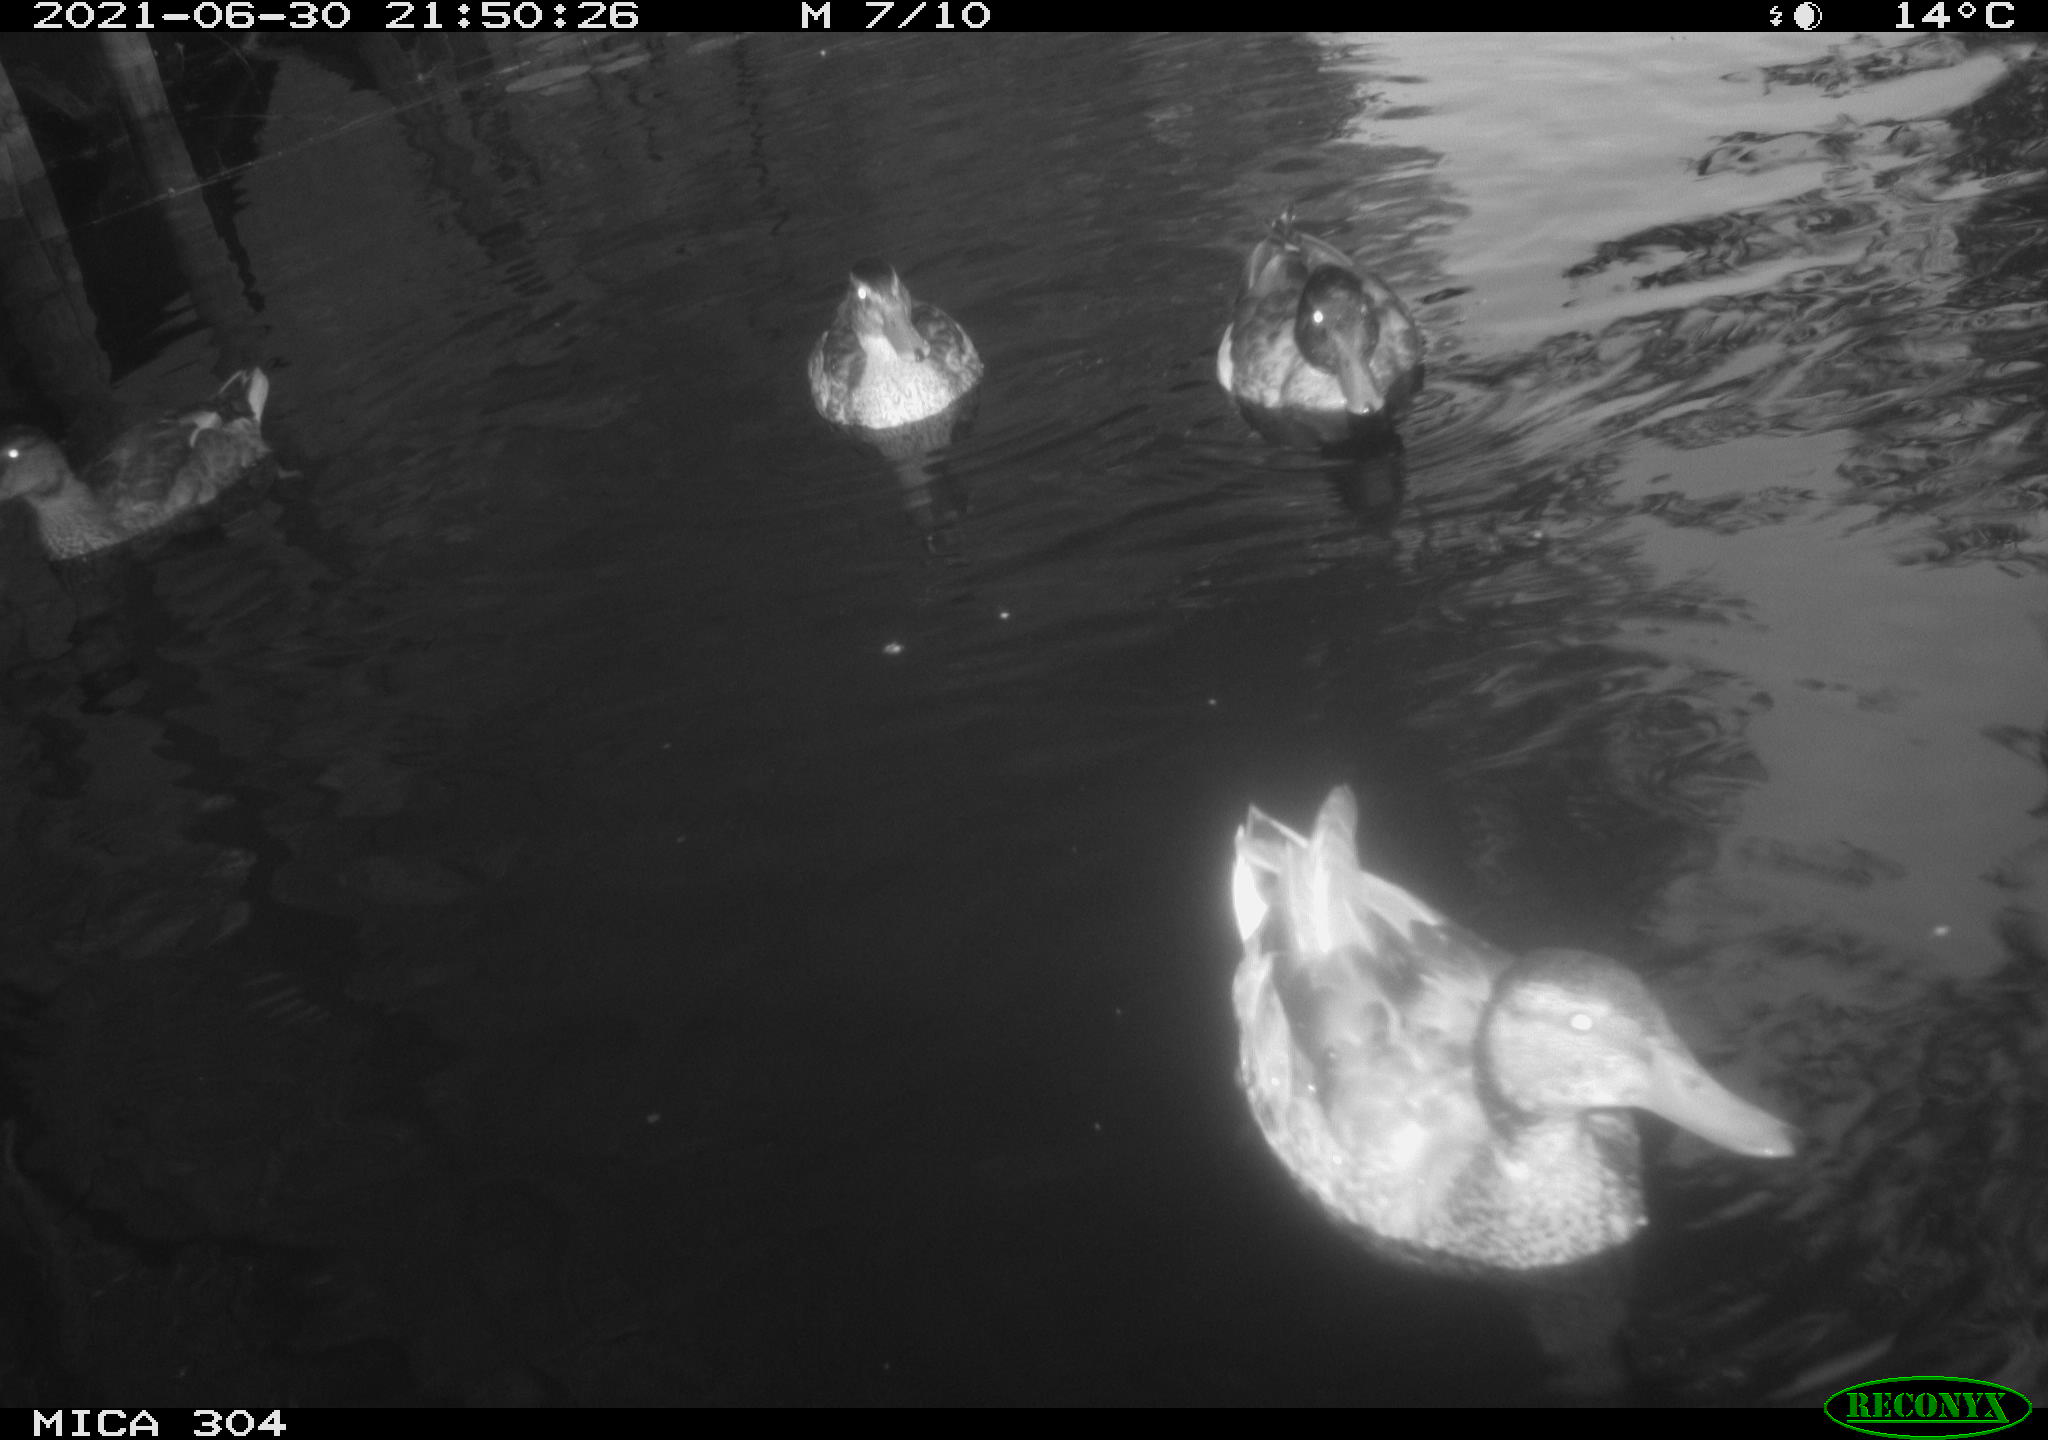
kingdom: Animalia
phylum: Chordata
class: Aves
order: Anseriformes
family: Anatidae
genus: Anas
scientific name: Anas platyrhynchos
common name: Mallard
